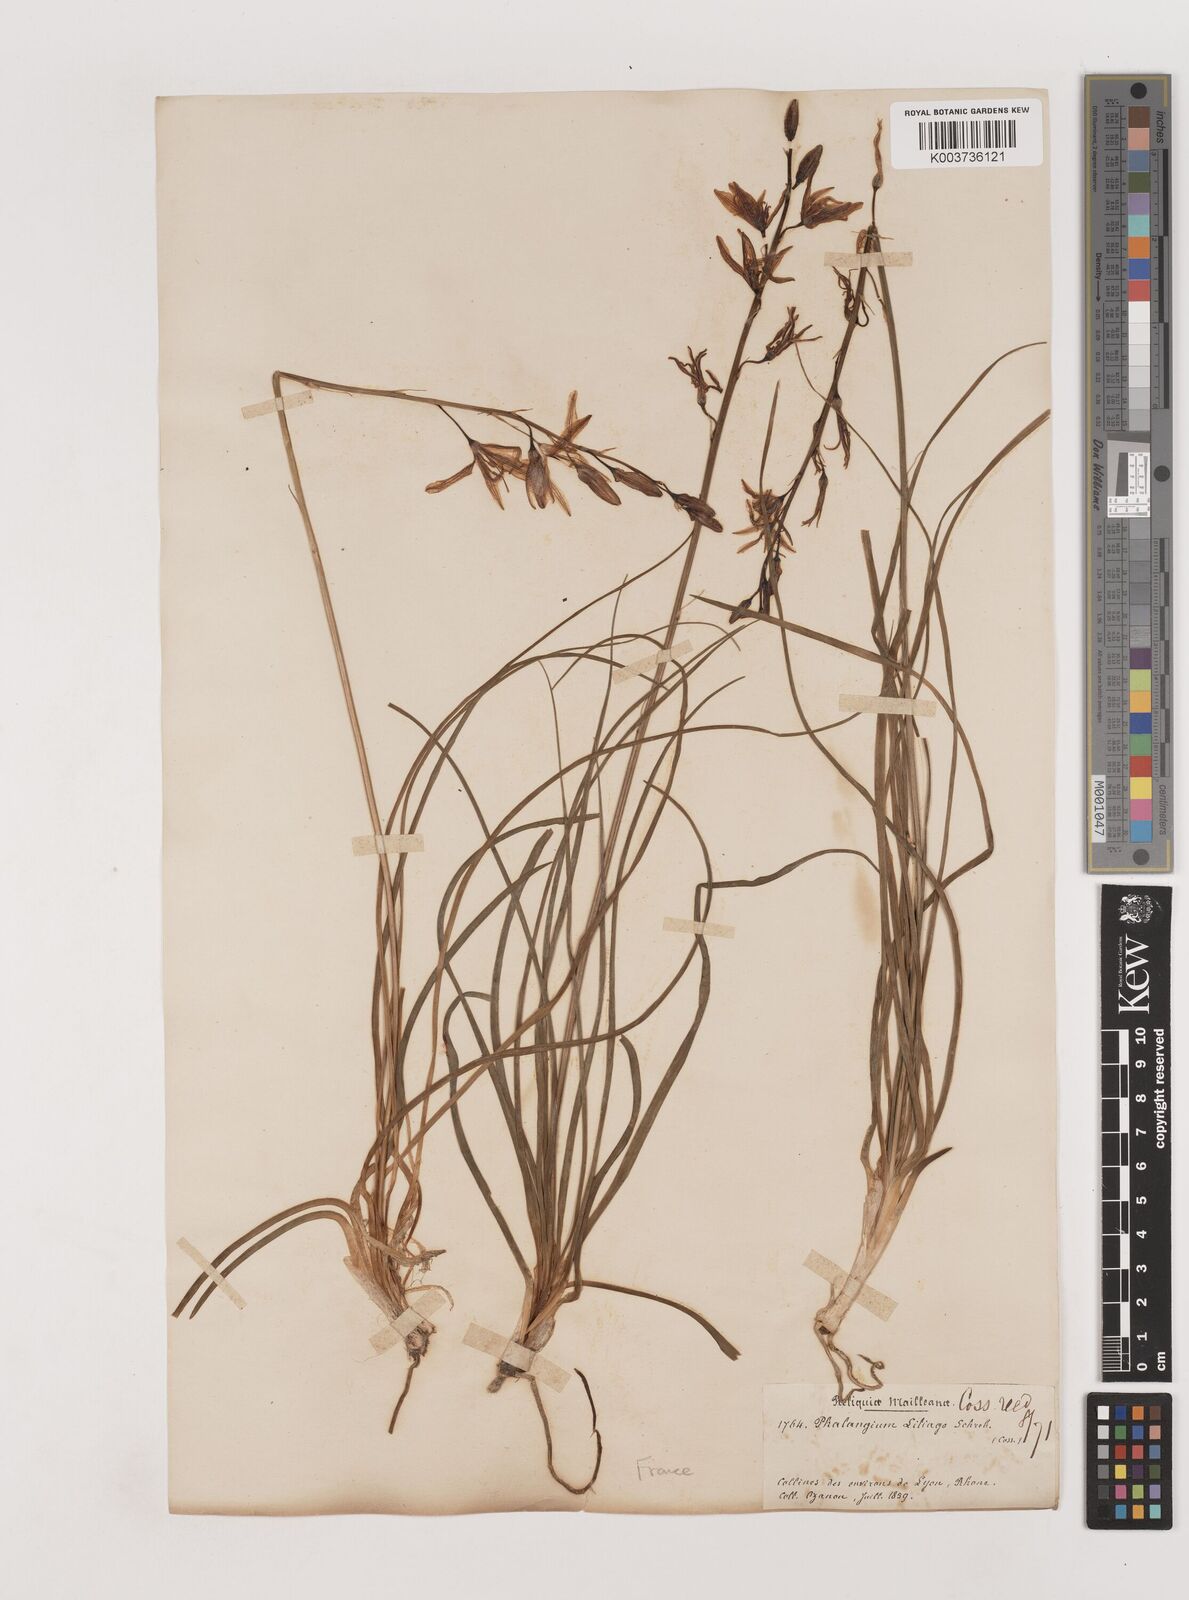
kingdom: Plantae
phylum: Tracheophyta
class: Liliopsida
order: Asparagales
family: Asparagaceae
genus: Anthericum
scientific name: Anthericum liliago
